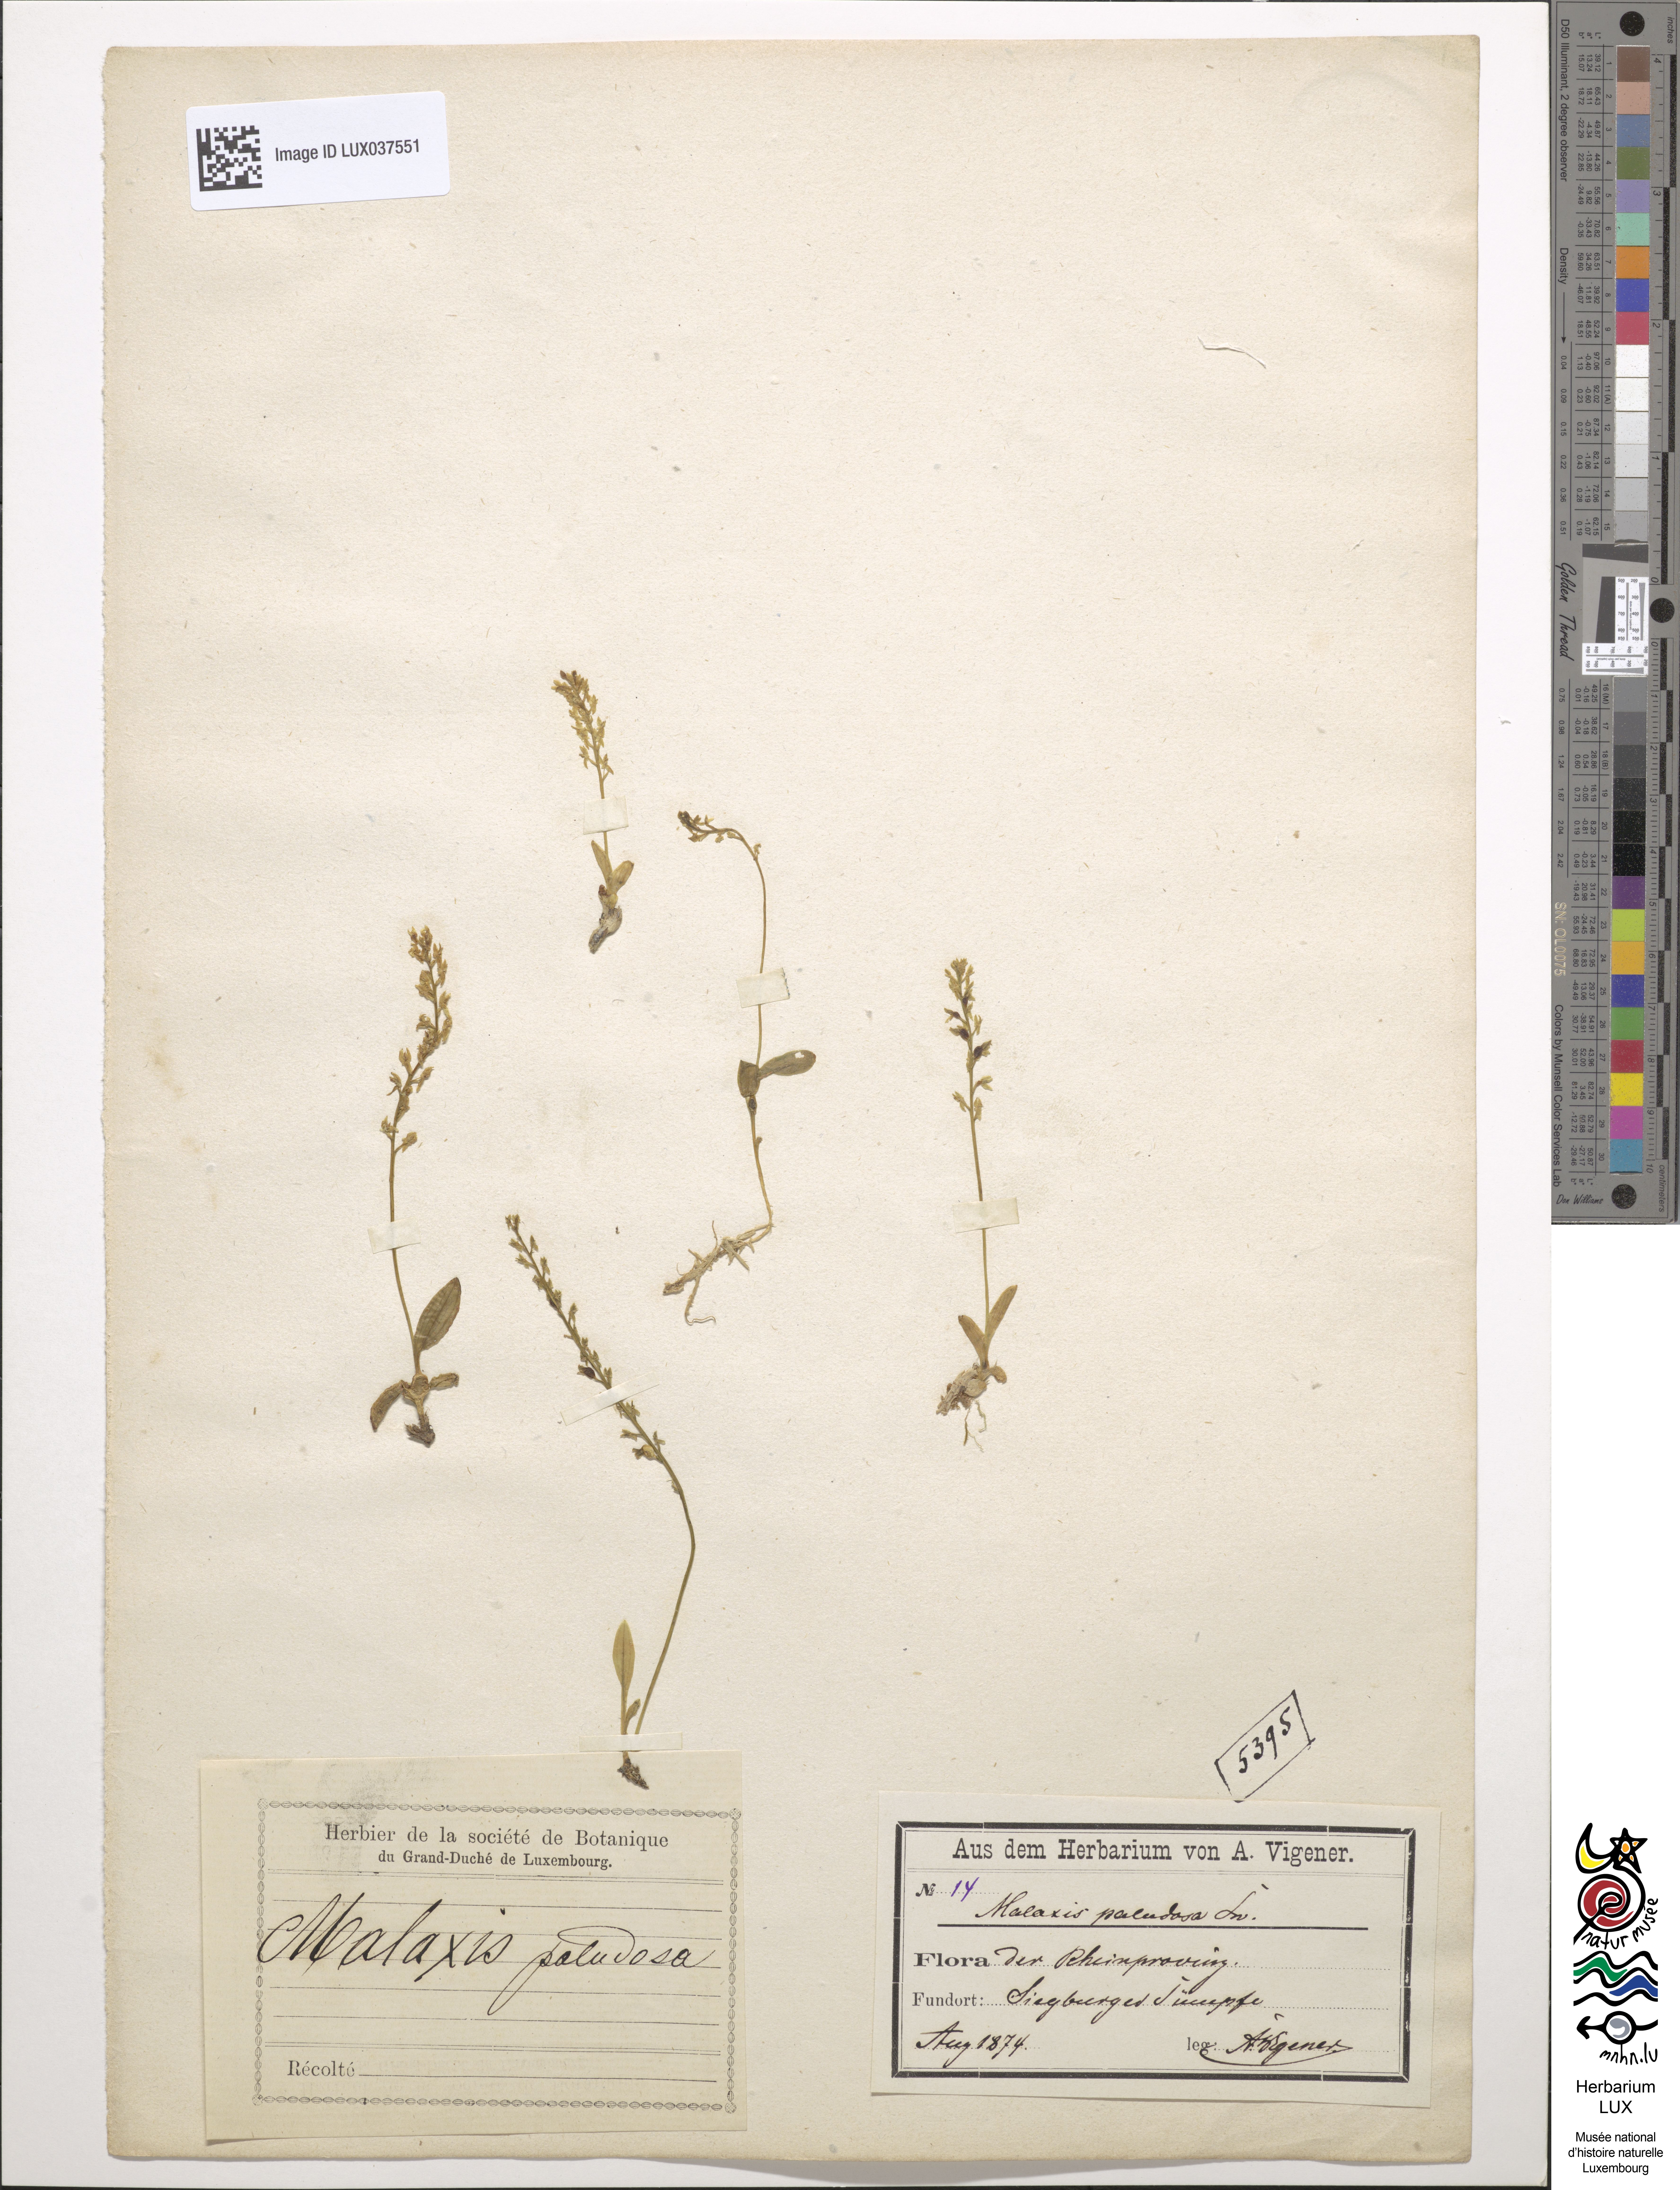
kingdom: Plantae
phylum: Tracheophyta
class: Liliopsida
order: Asparagales
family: Orchidaceae
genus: Hammarbya
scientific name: Hammarbya paludosa
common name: Bog orchid
